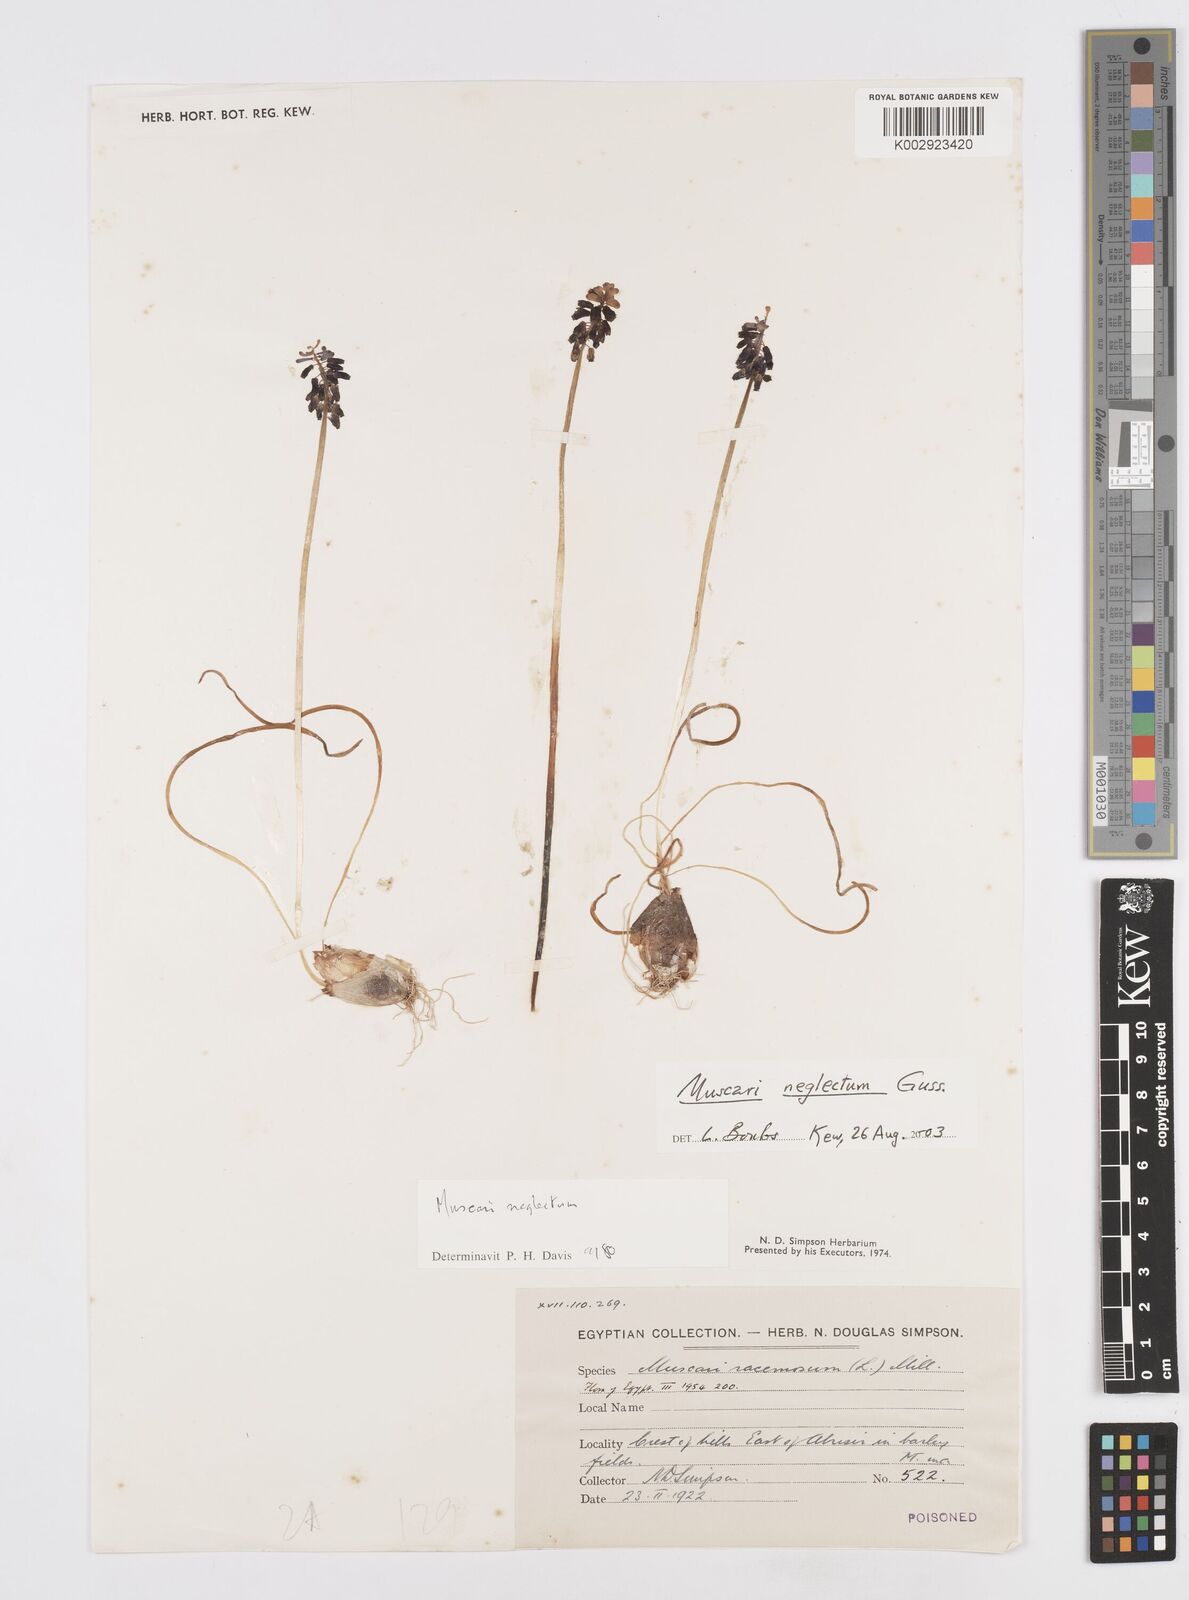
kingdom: Plantae
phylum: Tracheophyta
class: Liliopsida
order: Asparagales
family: Asparagaceae
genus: Muscari
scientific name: Muscari neglectum
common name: Grape-hyacinth
